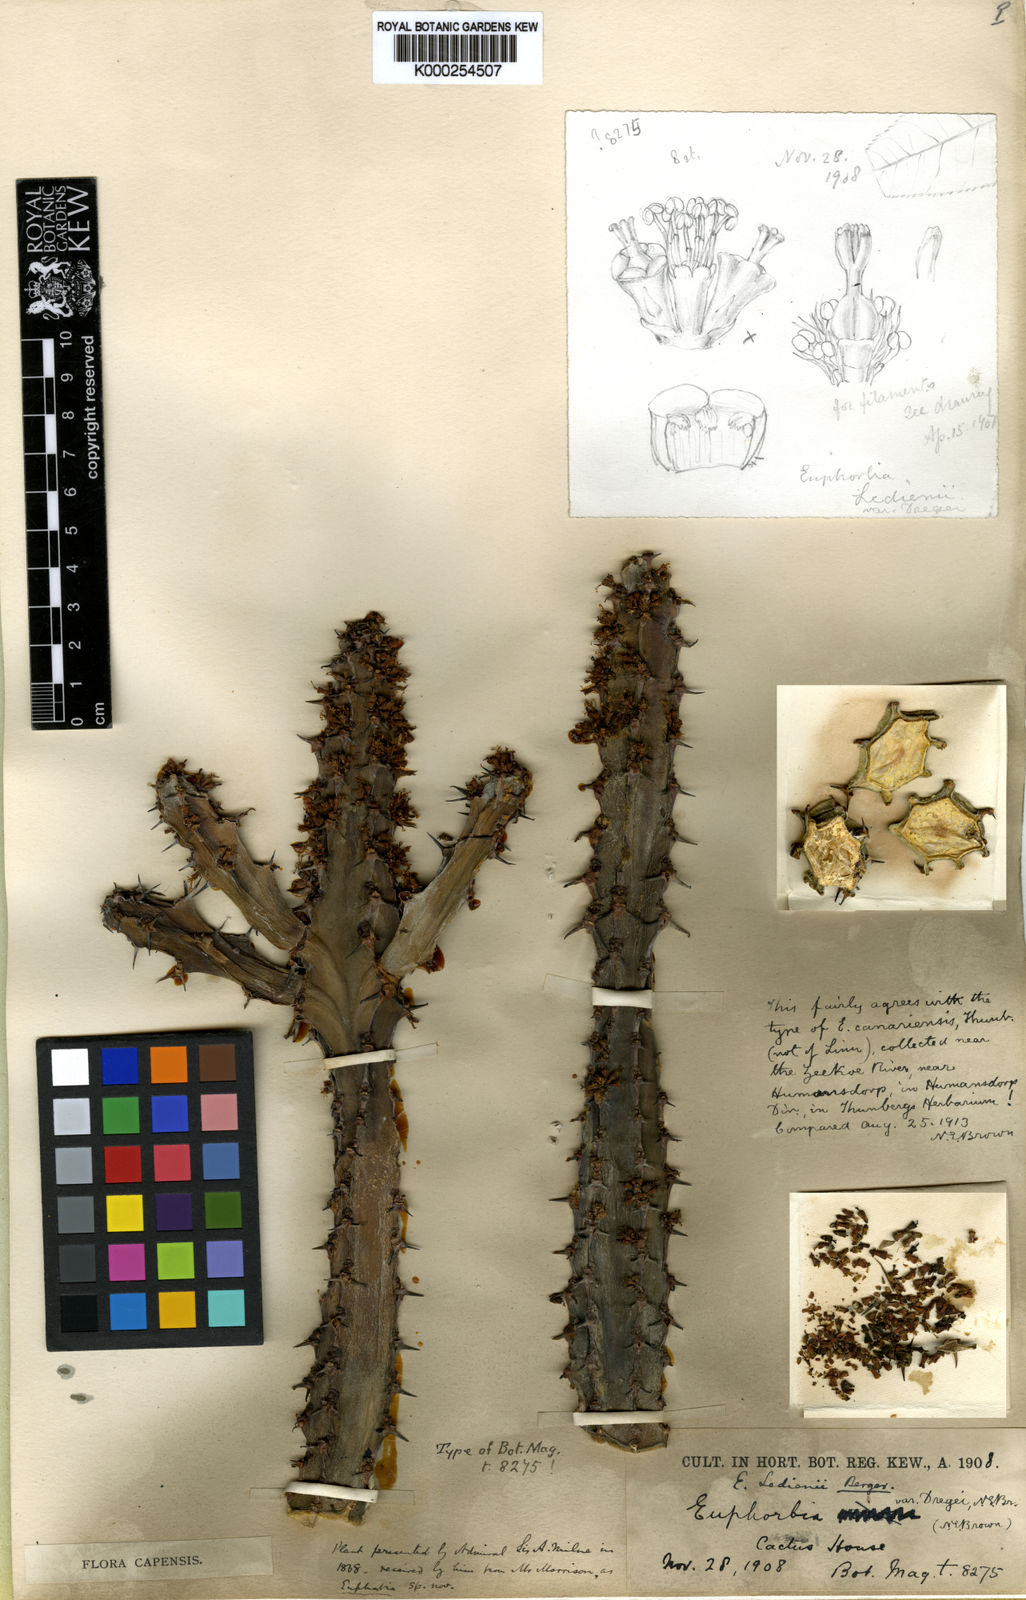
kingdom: Plantae
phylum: Tracheophyta
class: Magnoliopsida
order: Malpighiales
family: Euphorbiaceae
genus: Euphorbia
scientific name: Euphorbia ledienii
